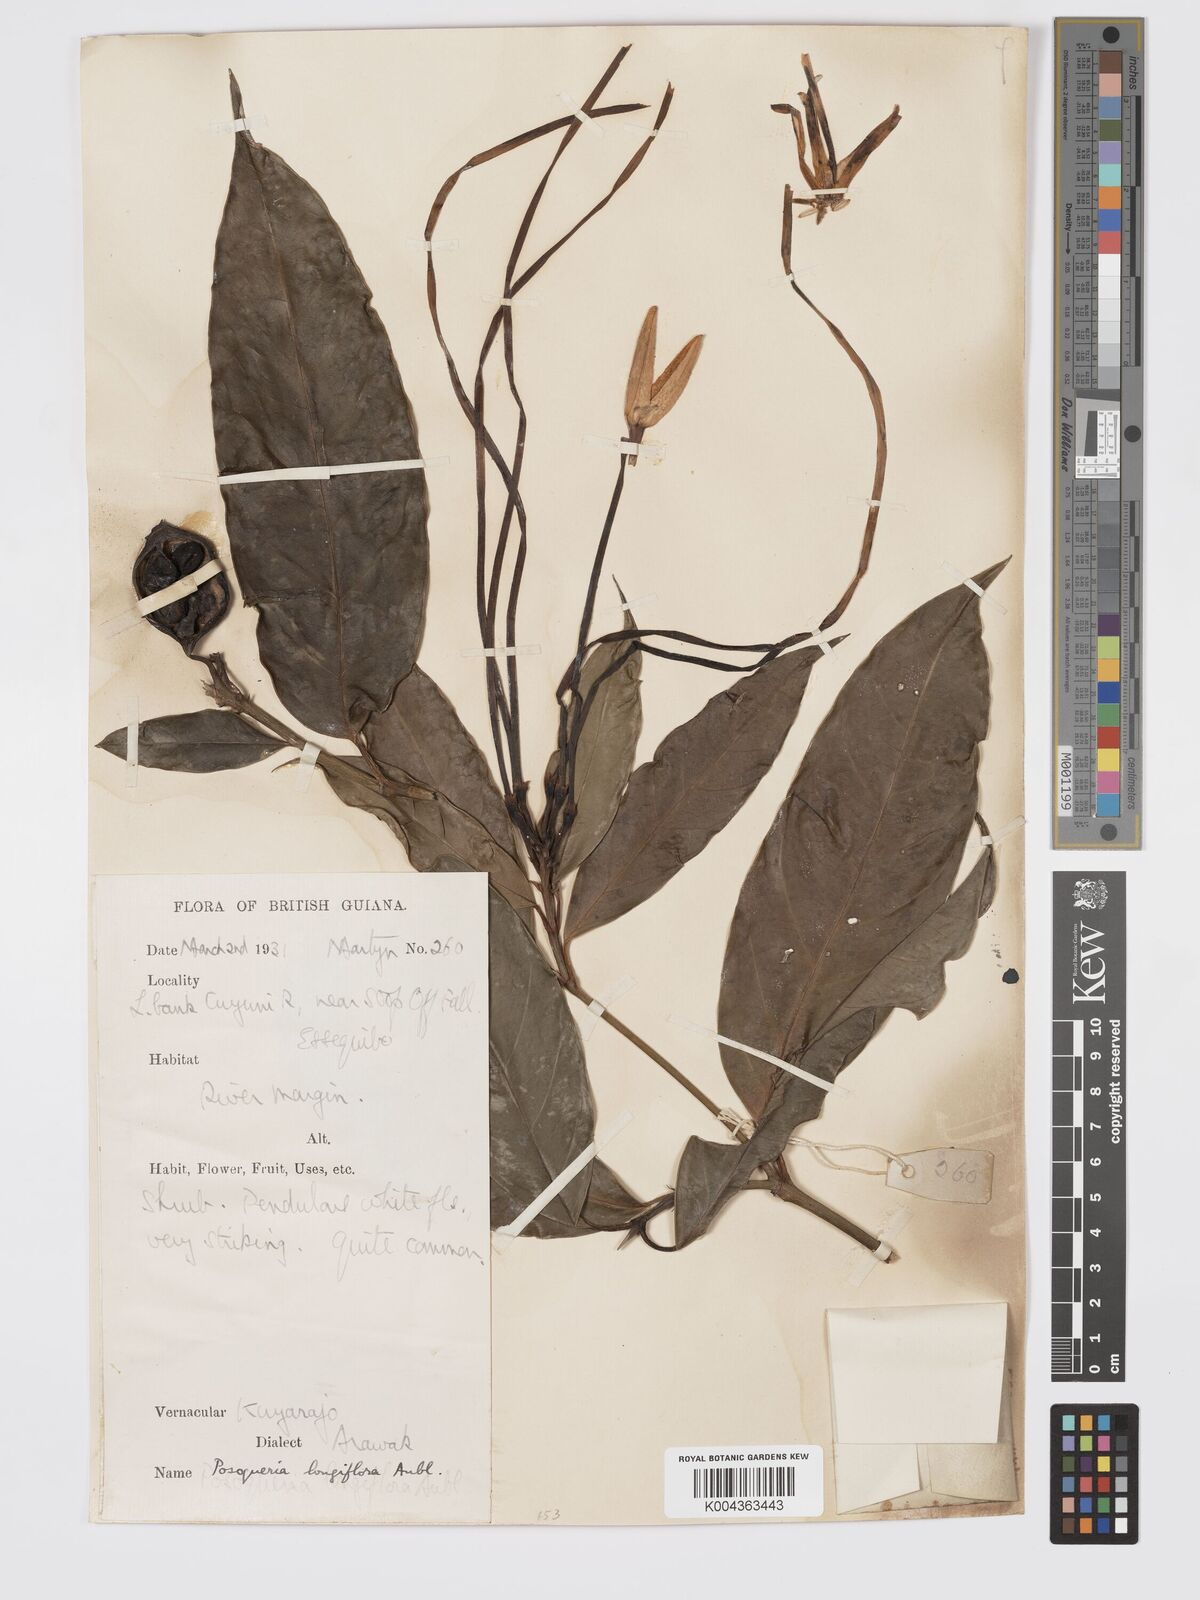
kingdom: Plantae
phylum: Tracheophyta
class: Magnoliopsida
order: Gentianales
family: Rubiaceae
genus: Posoqueria
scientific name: Posoqueria
